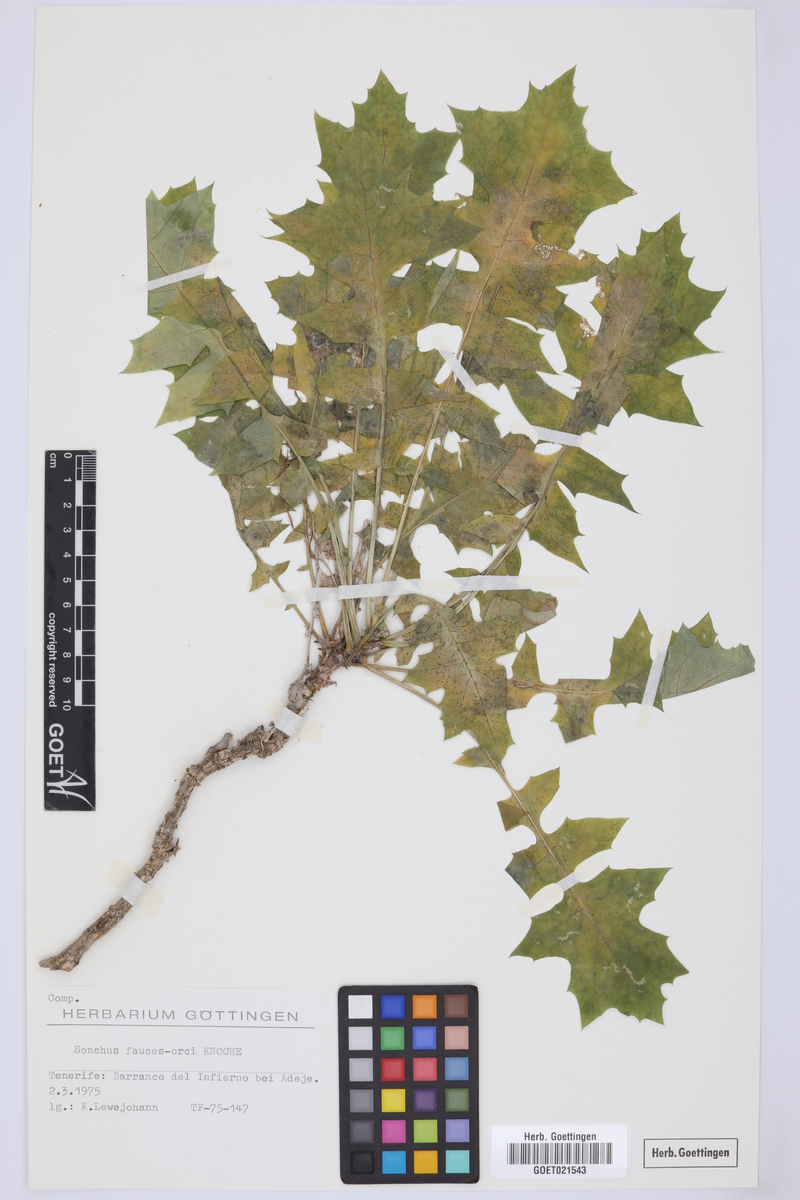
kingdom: Plantae
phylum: Tracheophyta
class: Magnoliopsida
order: Asterales
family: Asteraceae
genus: Sonchus
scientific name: Sonchus fauces-orci
